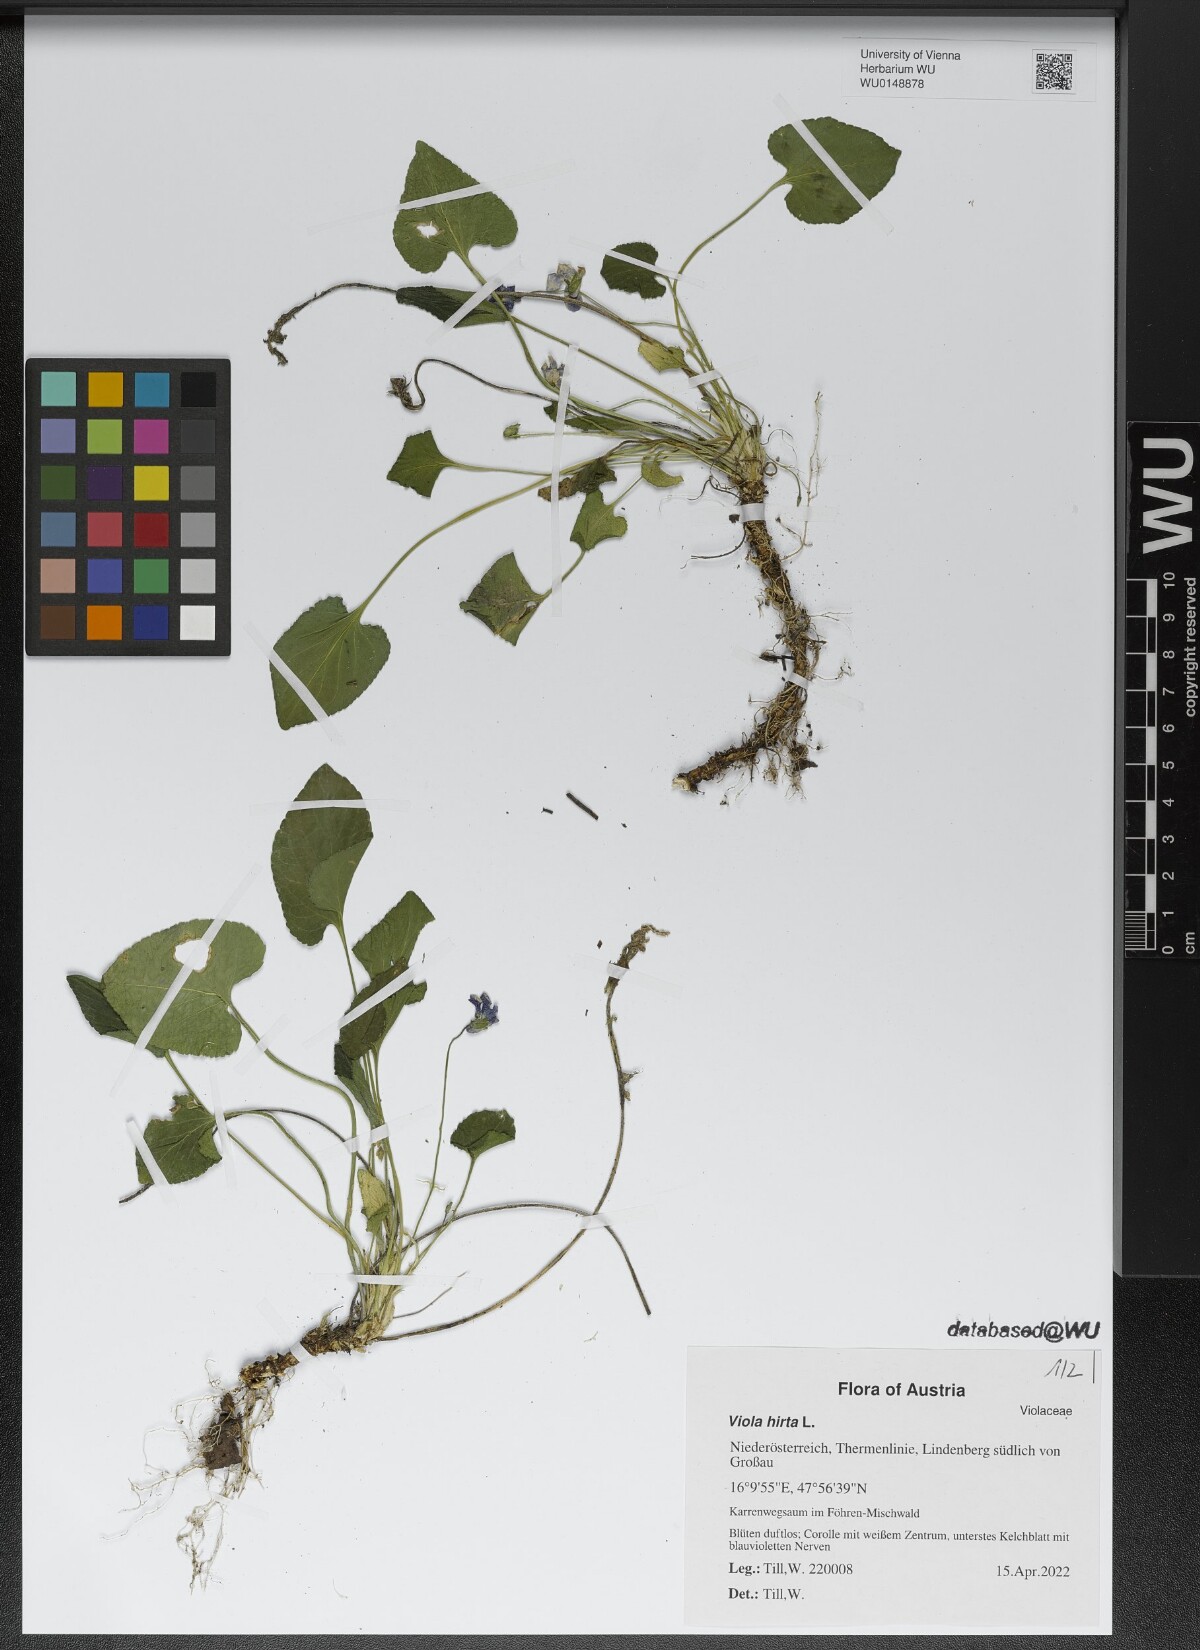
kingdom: Plantae
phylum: Tracheophyta
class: Magnoliopsida
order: Malpighiales
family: Violaceae
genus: Viola
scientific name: Viola hirta
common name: Hairy violet
